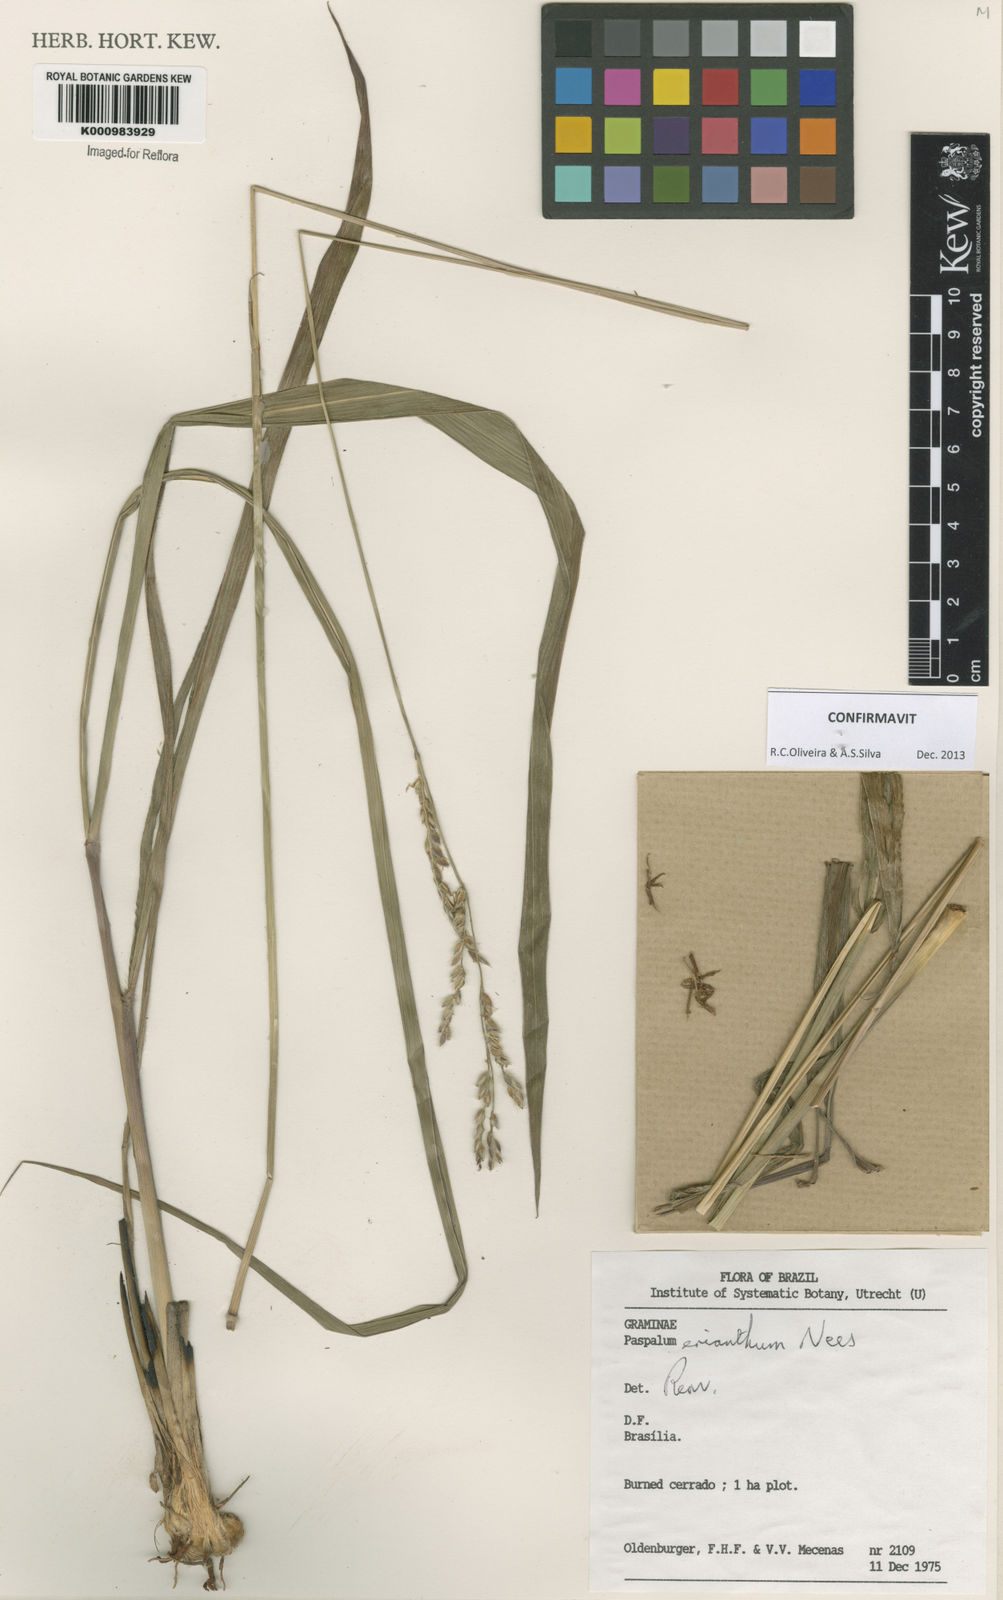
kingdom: Plantae
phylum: Tracheophyta
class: Liliopsida
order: Poales
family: Poaceae
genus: Paspalum
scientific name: Paspalum erianthum
